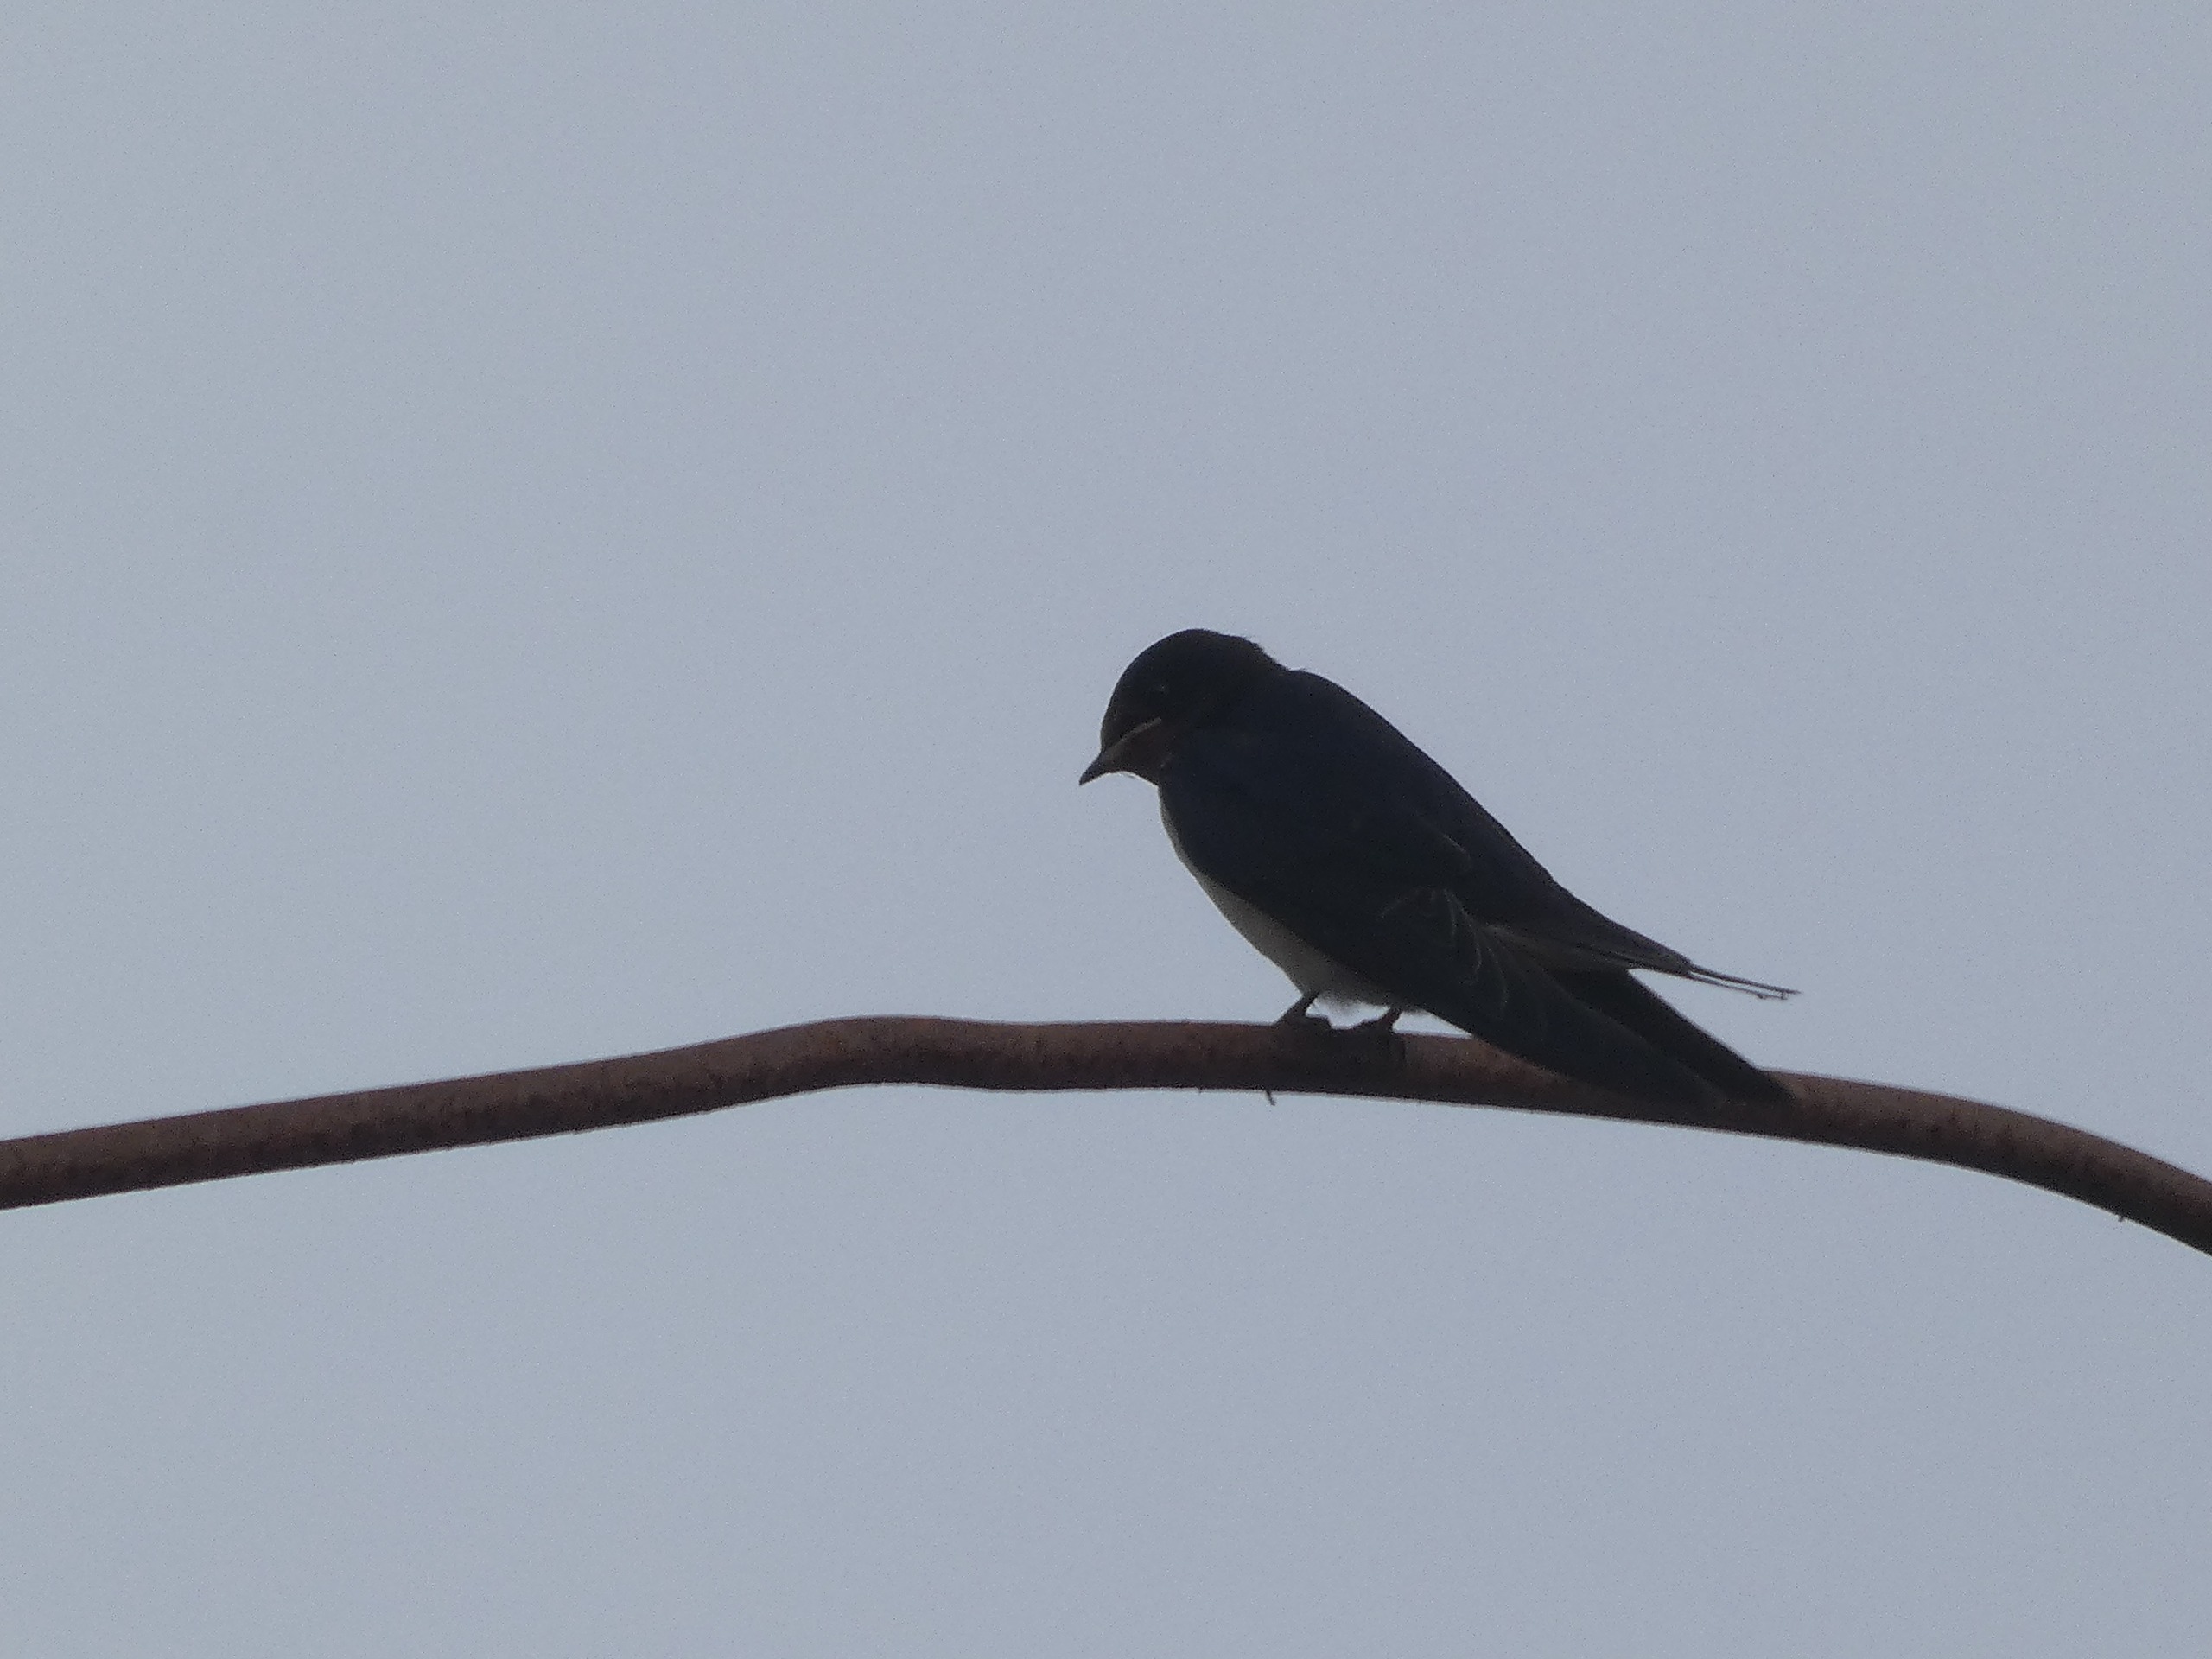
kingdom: Animalia
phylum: Chordata
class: Aves
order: Passeriformes
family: Hirundinidae
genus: Hirundo
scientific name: Hirundo rustica
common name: Landsvale
